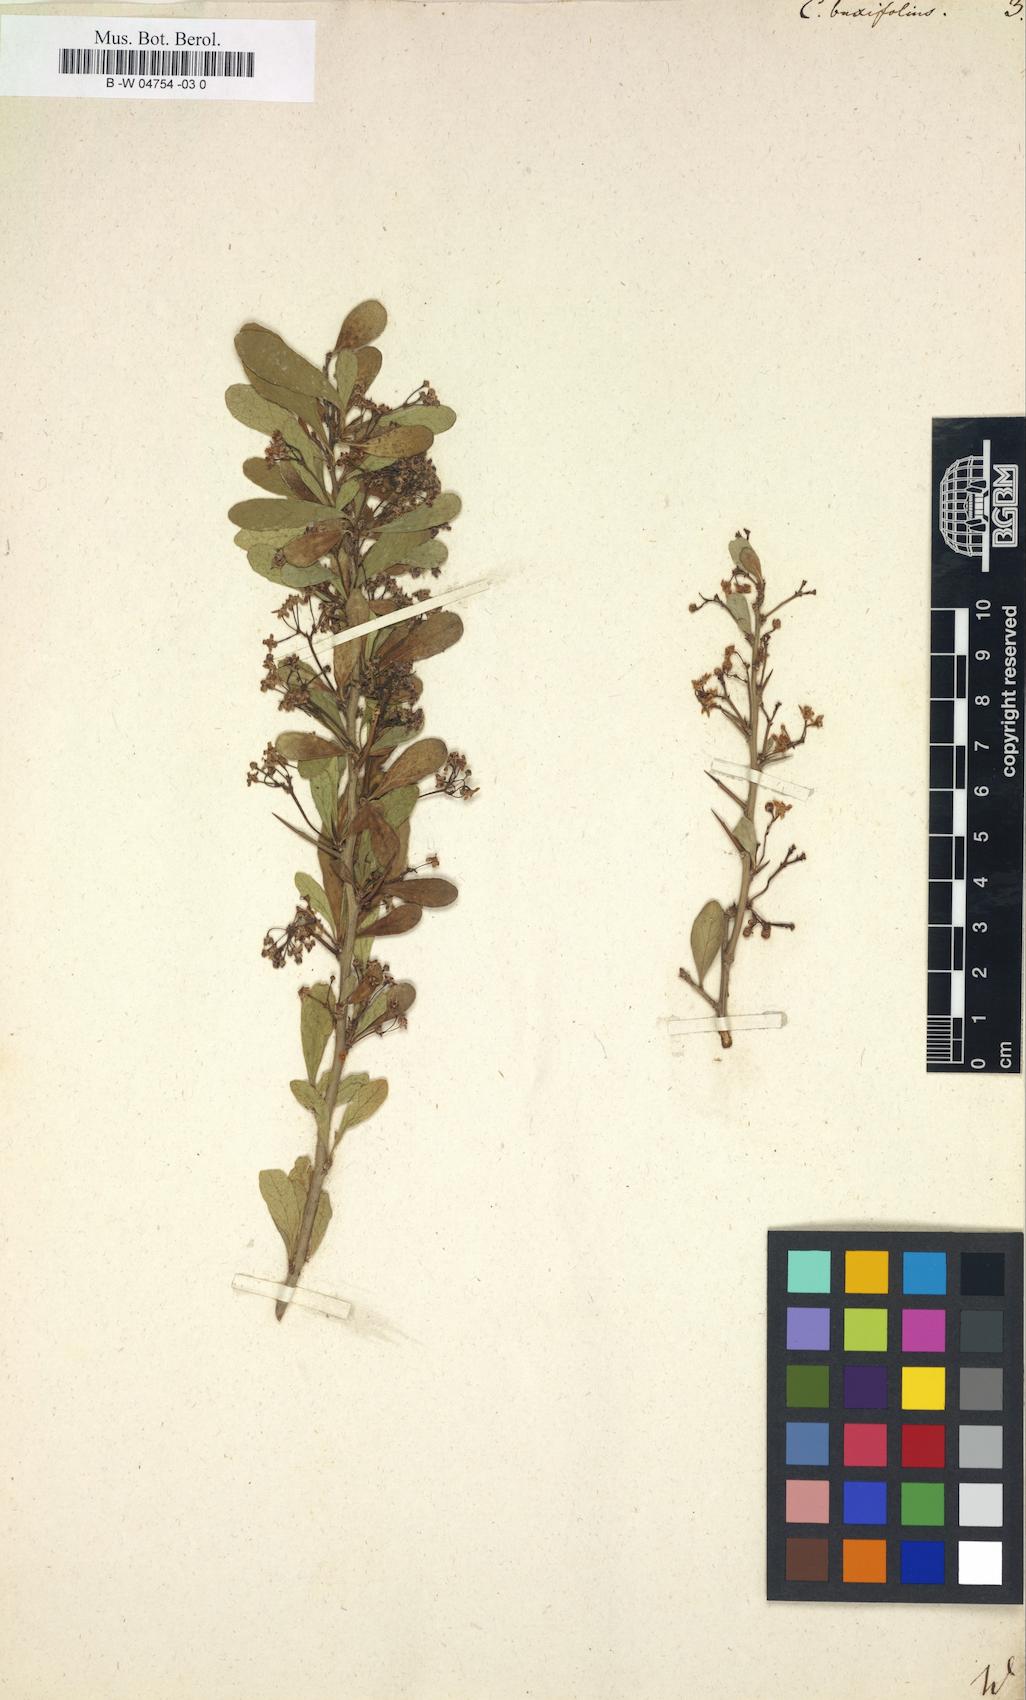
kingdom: Plantae
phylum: Tracheophyta
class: Magnoliopsida
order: Celastrales
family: Celastraceae
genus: Gymnosporia
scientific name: Gymnosporia
